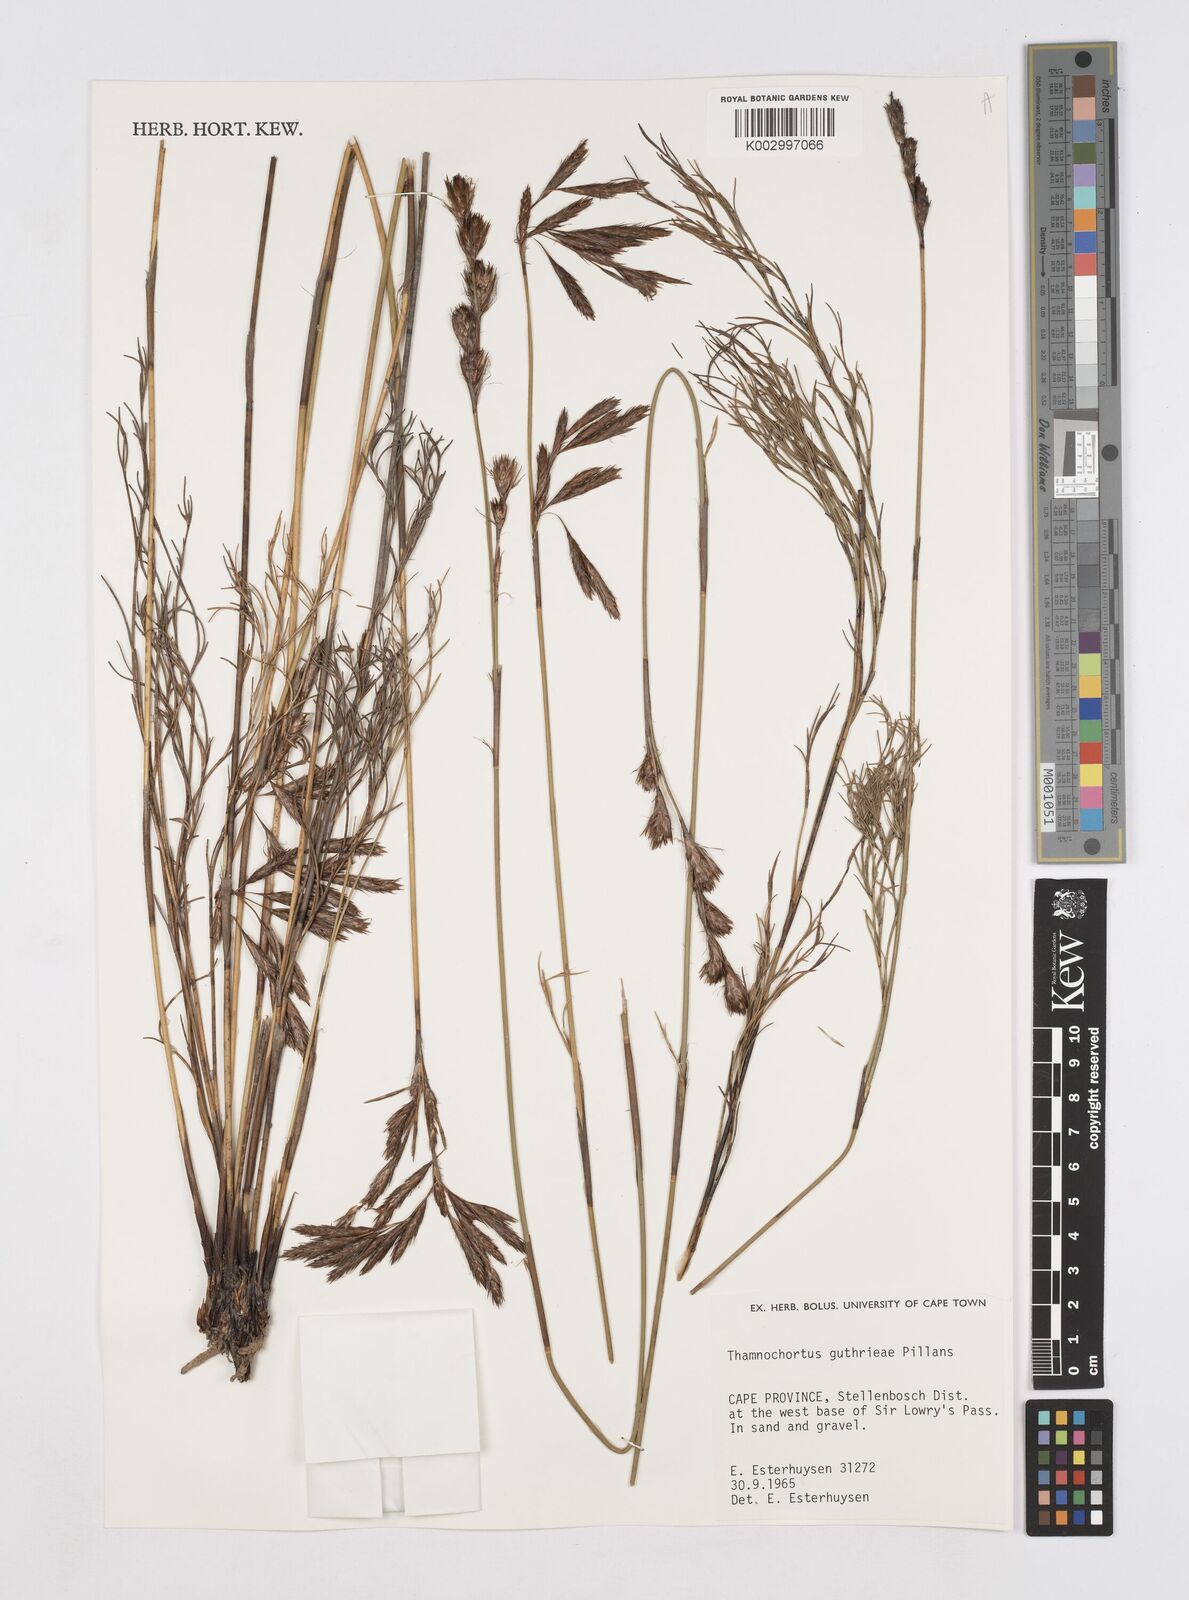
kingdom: Plantae
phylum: Tracheophyta
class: Liliopsida
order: Poales
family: Restionaceae
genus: Thamnochortus
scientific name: Thamnochortus guthrieae
